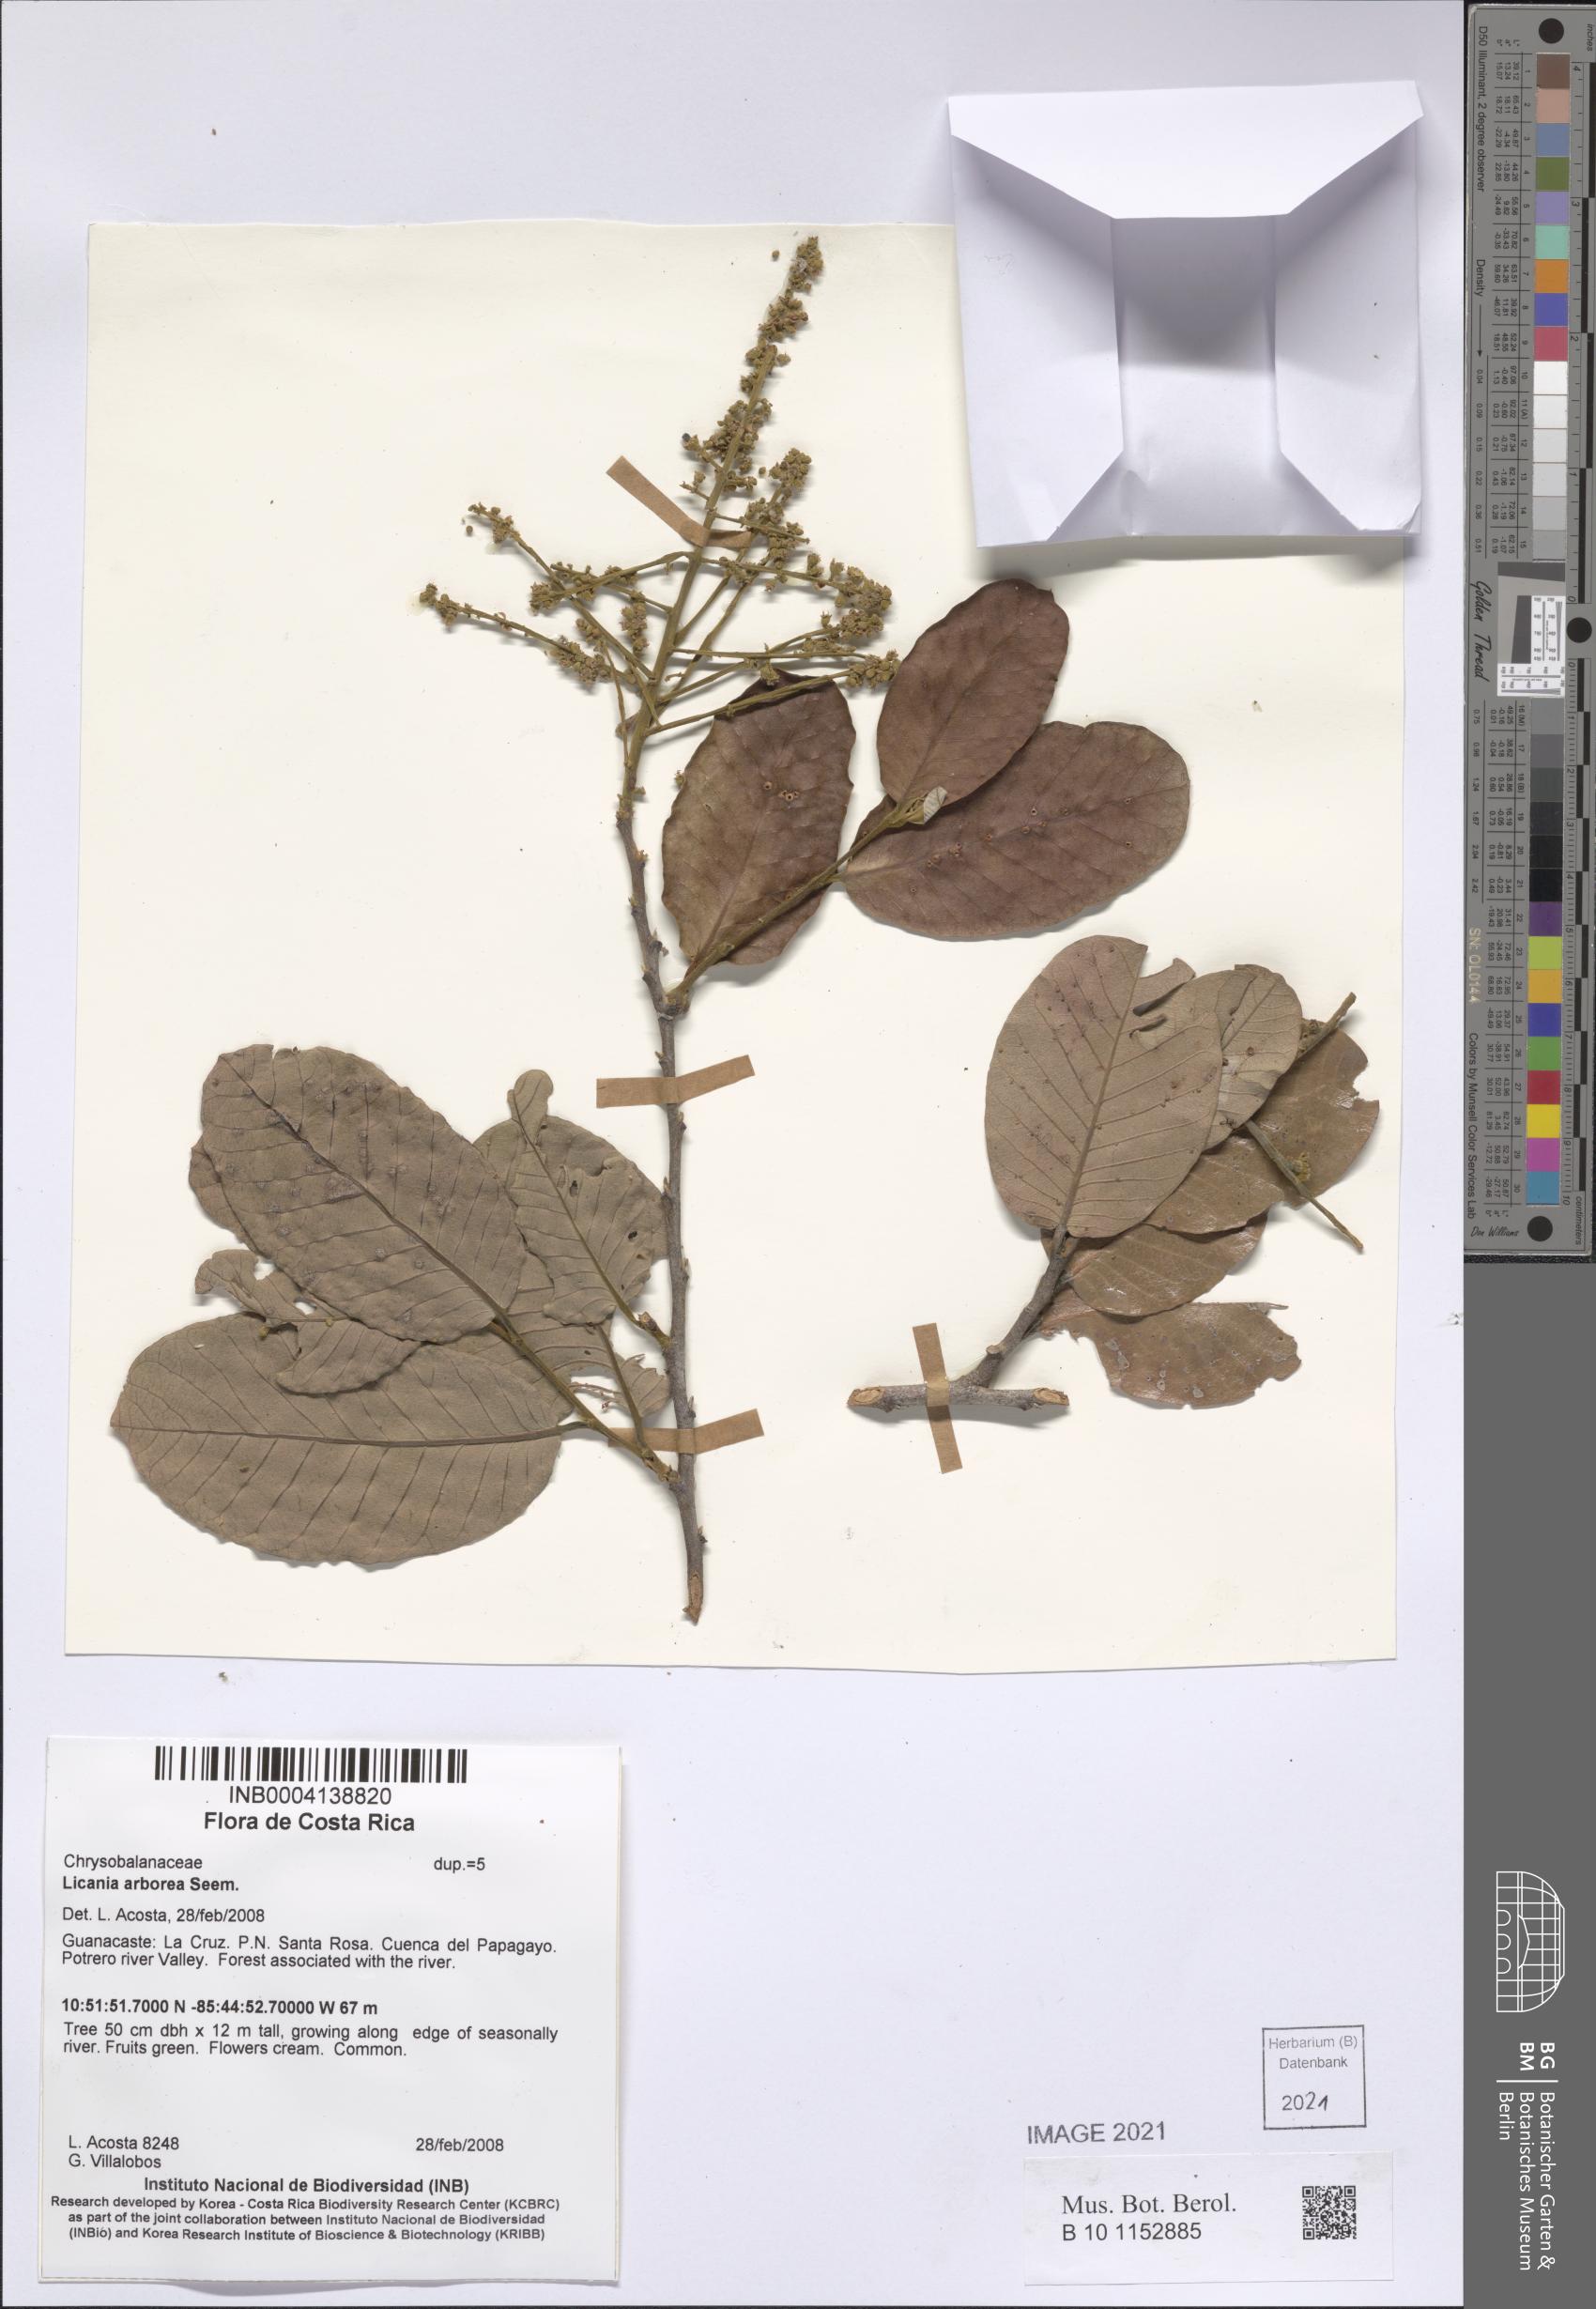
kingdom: Plantae
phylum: Tracheophyta
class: Magnoliopsida
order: Malpighiales
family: Chrysobalanaceae
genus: Microdesmia
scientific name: Microdesmia arborea
